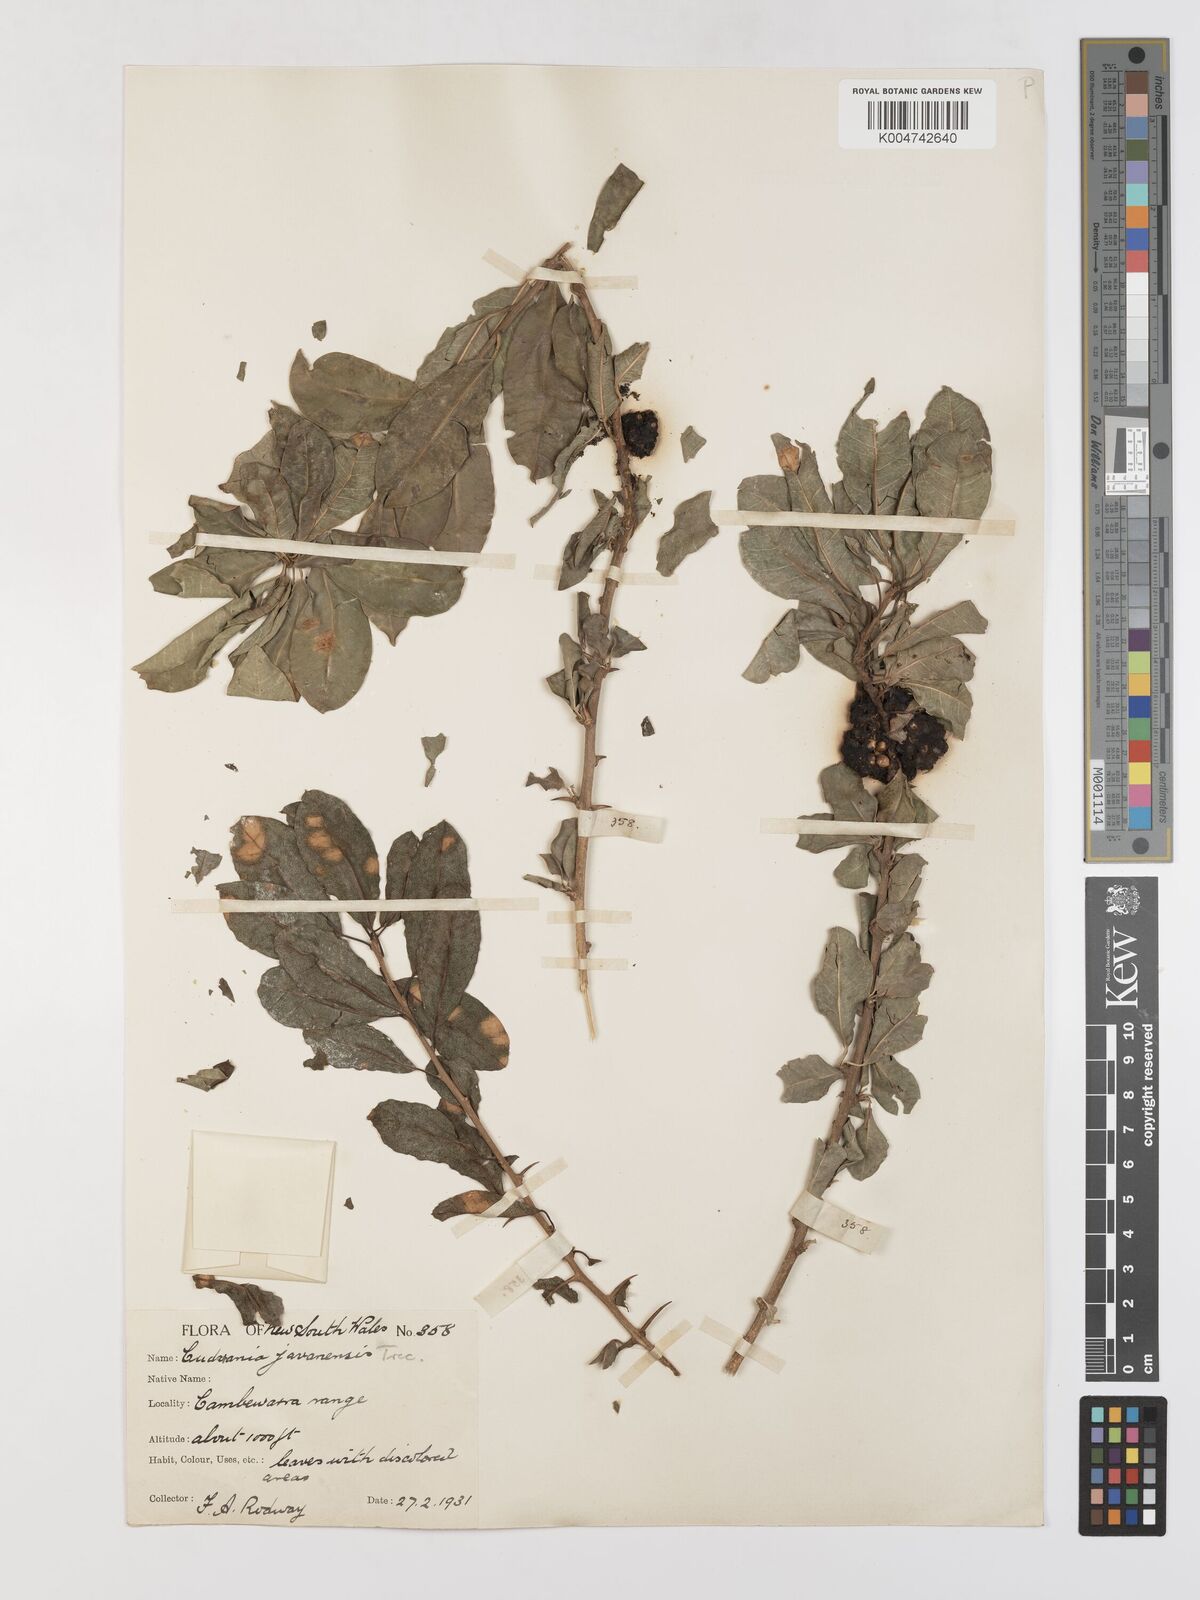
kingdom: Plantae
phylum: Tracheophyta
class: Magnoliopsida
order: Rosales
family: Moraceae
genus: Maclura
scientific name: Maclura cochinchinensis
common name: Cockspurthorn
